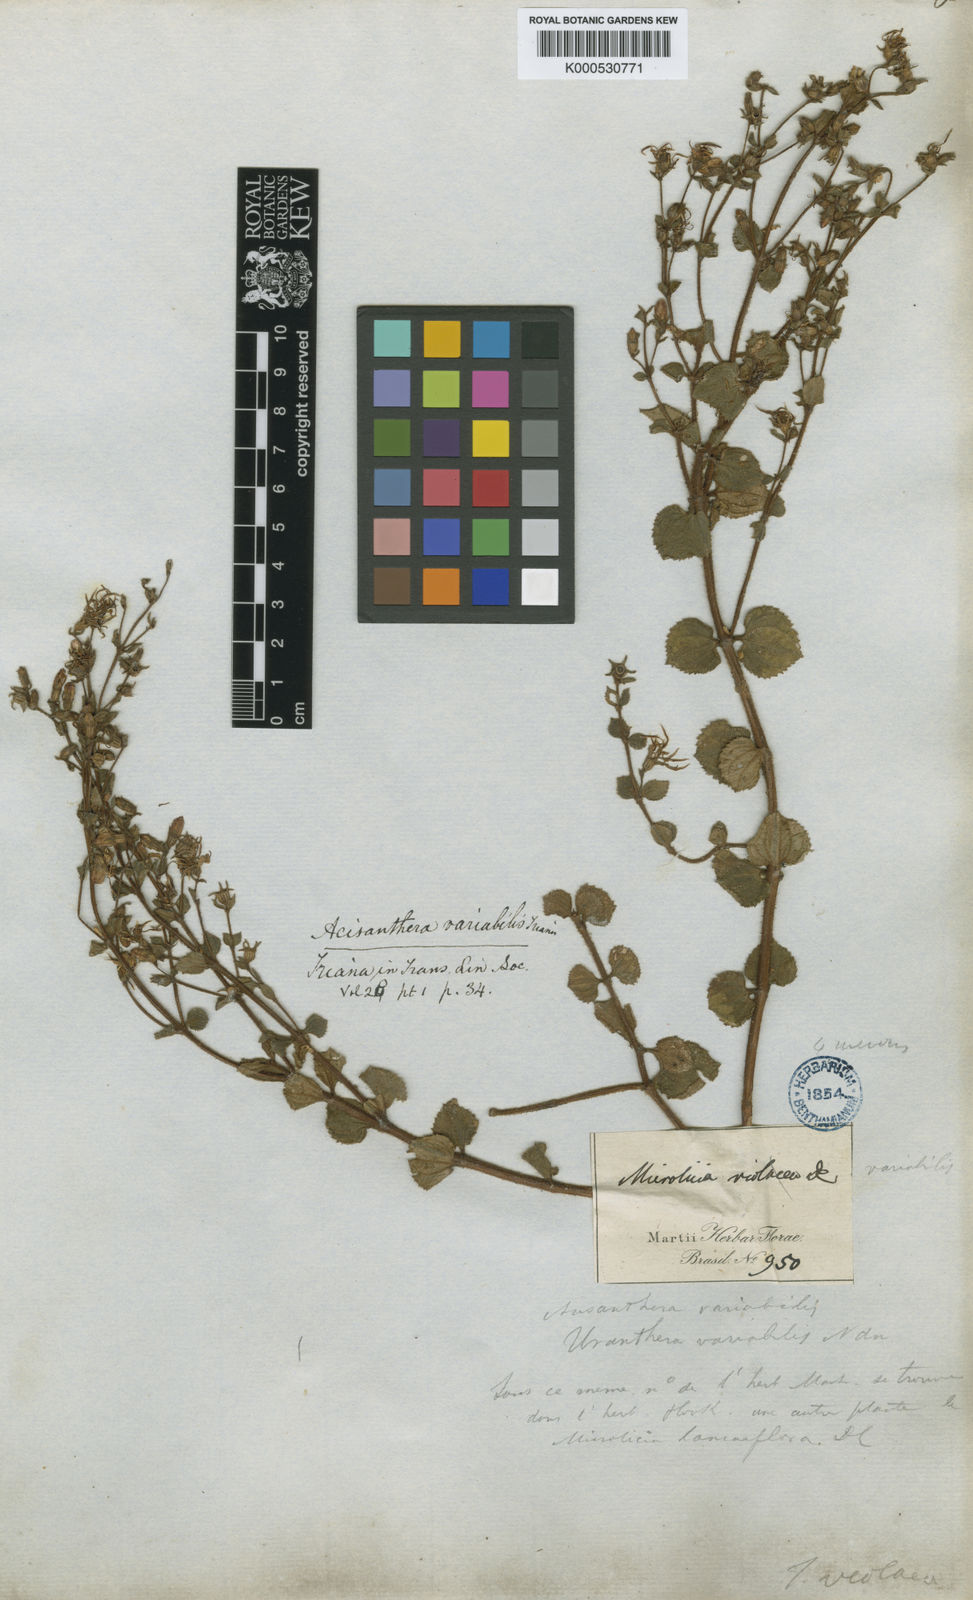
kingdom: Plantae
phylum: Tracheophyta
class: Magnoliopsida
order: Myrtales
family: Melastomataceae
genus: Acisanthera
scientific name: Acisanthera variabilis
